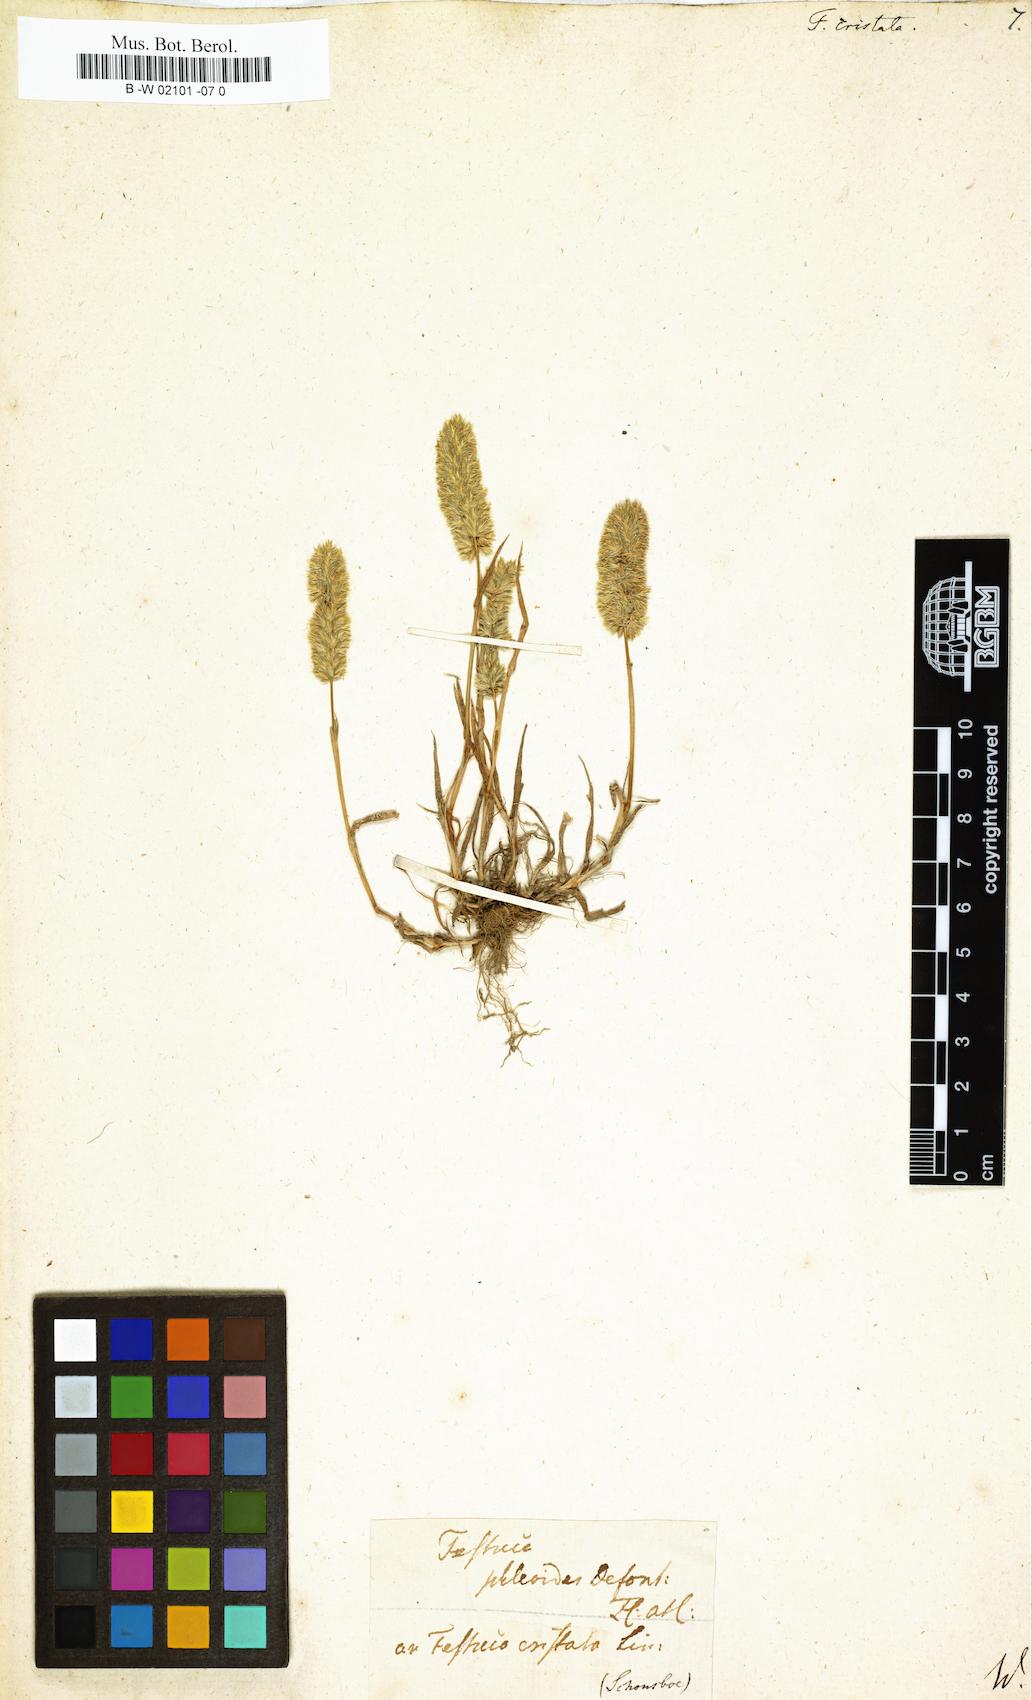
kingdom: Plantae
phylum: Tracheophyta
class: Liliopsida
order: Poales
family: Poaceae
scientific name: Poaceae
